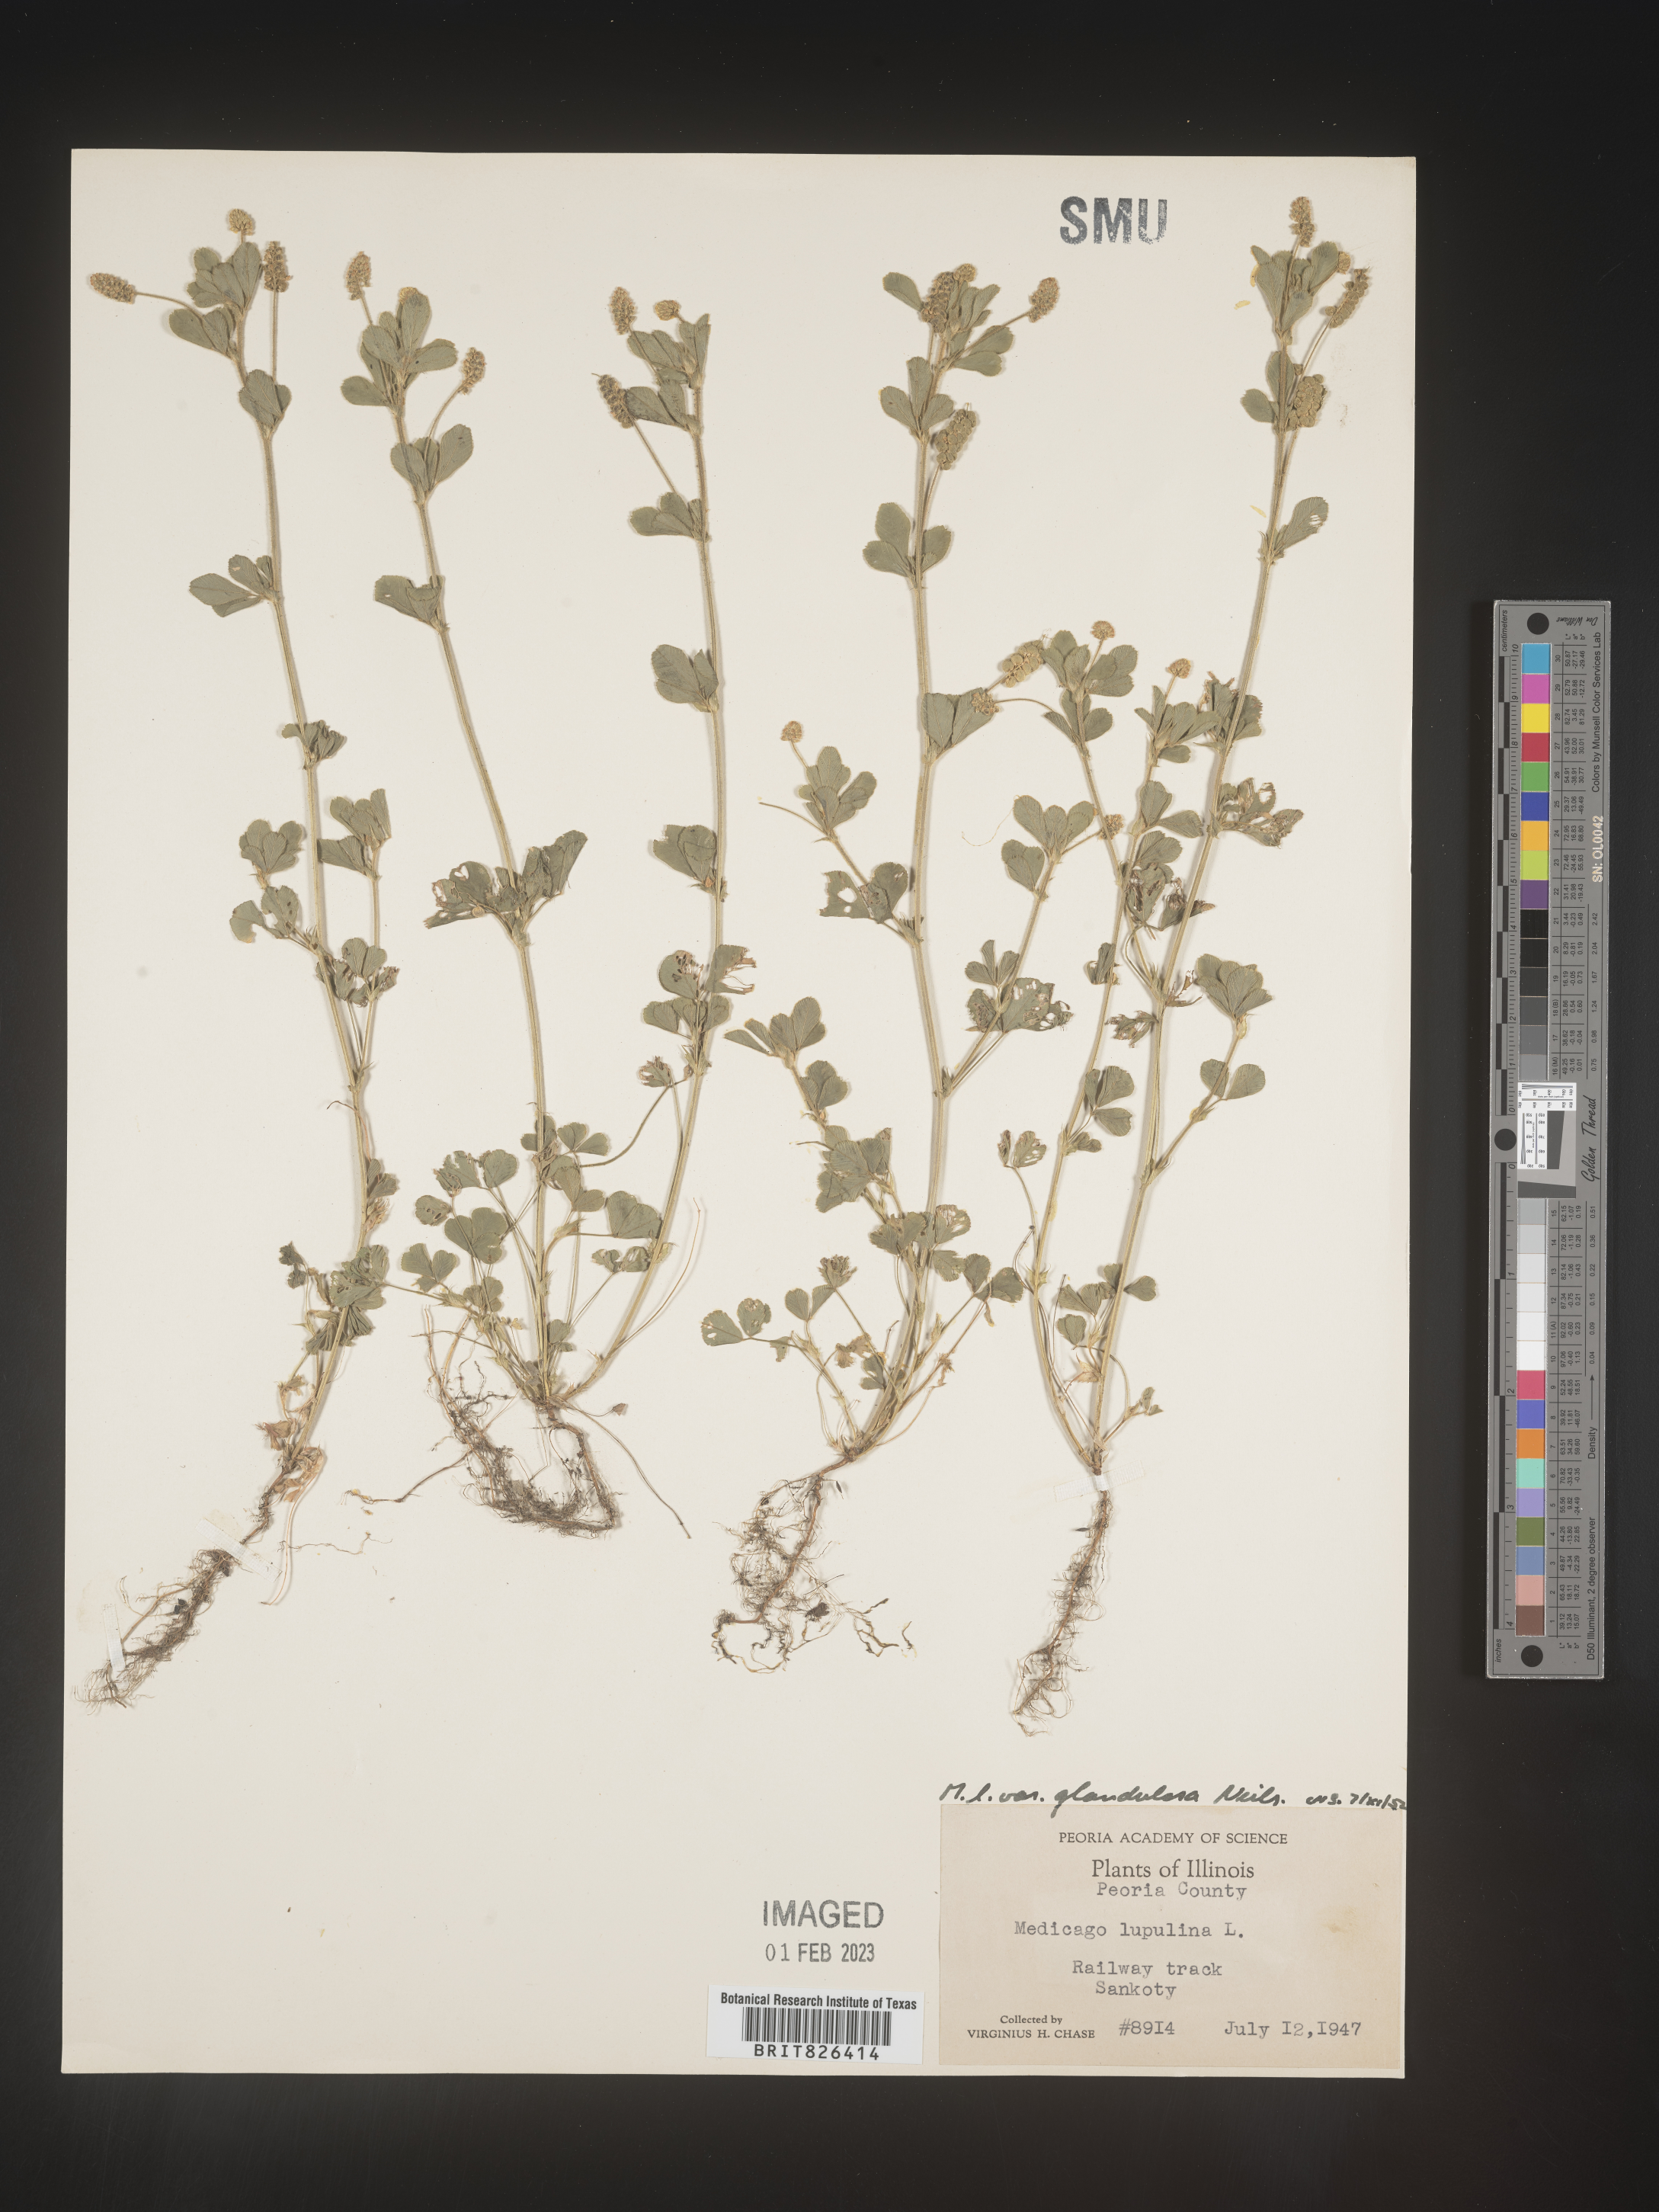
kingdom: Plantae
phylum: Tracheophyta
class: Magnoliopsida
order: Fabales
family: Fabaceae
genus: Medicago
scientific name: Medicago lupulina
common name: Black medick
